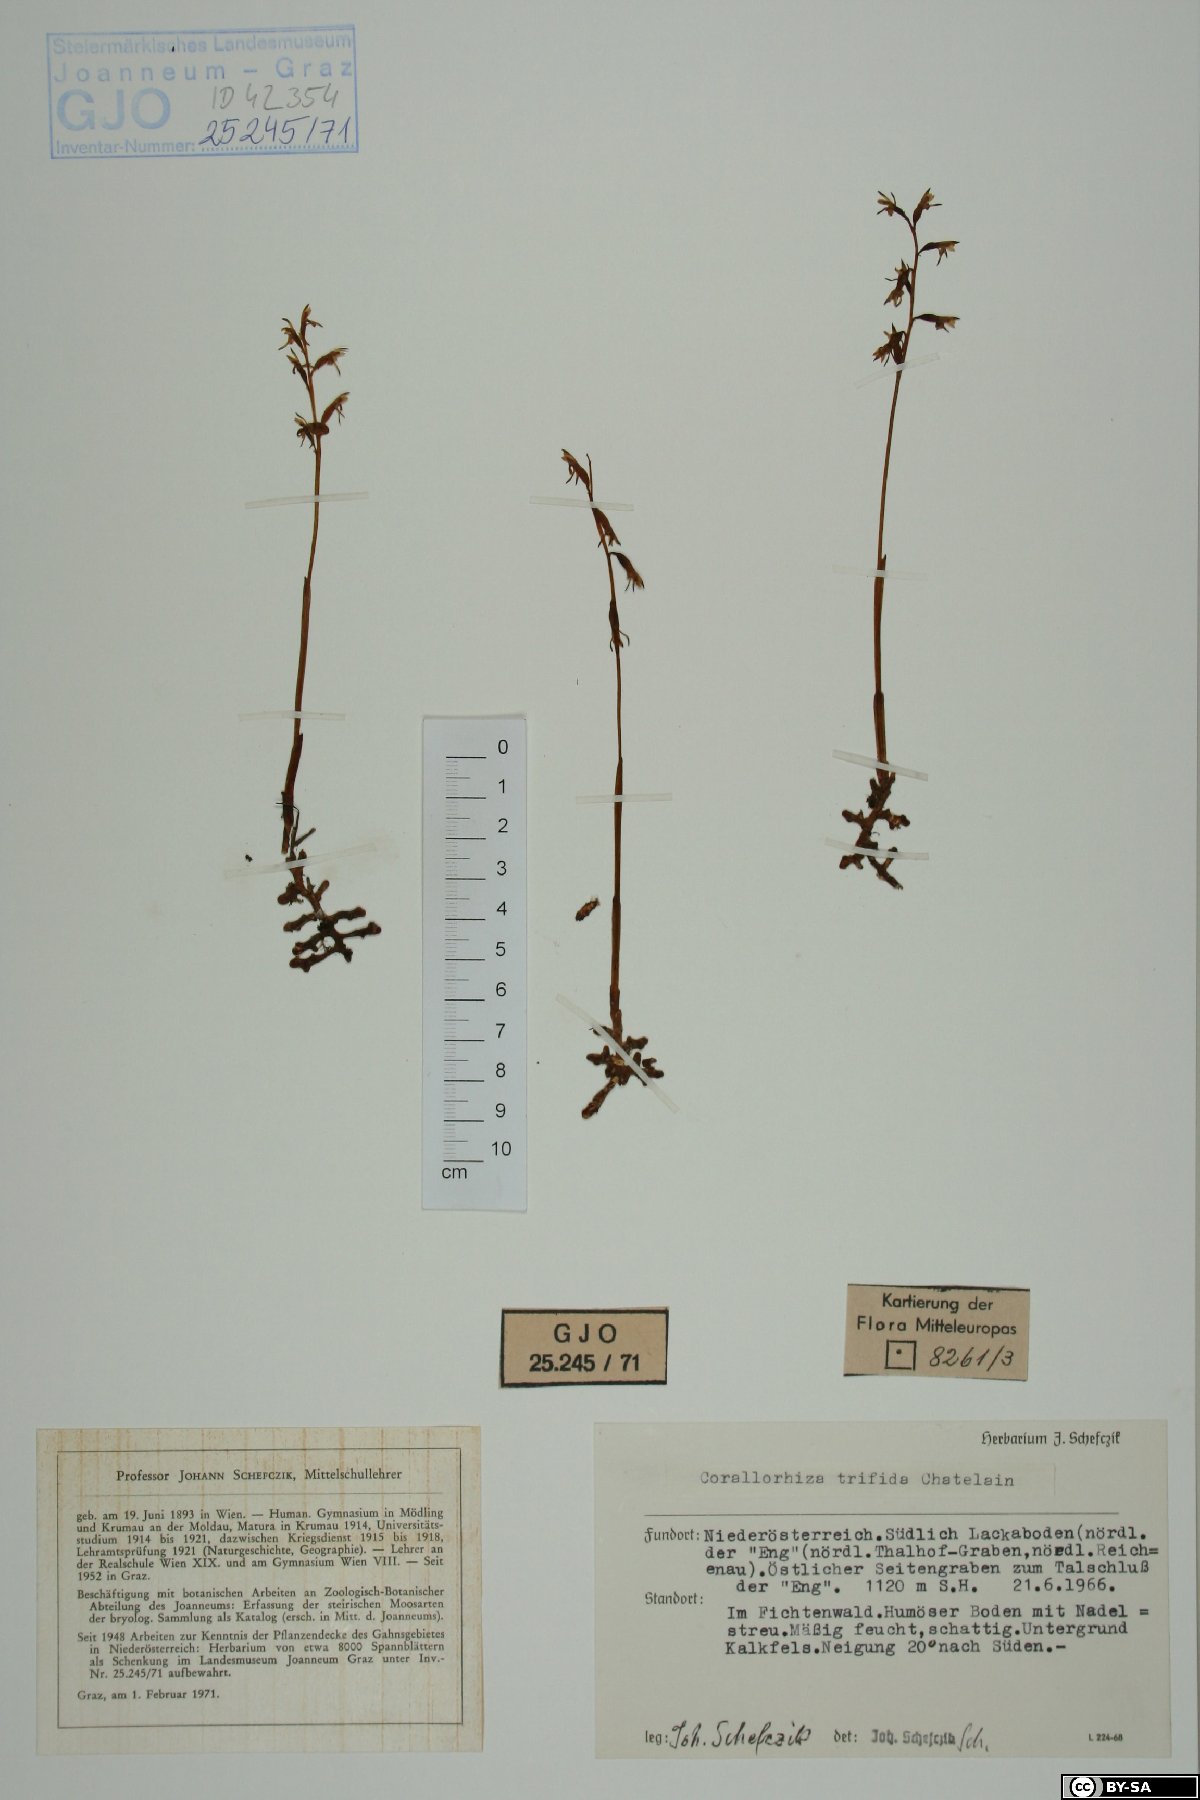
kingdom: Plantae
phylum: Tracheophyta
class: Liliopsida
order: Asparagales
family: Orchidaceae
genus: Corallorhiza
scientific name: Corallorhiza trifida
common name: Yellow coralroot
